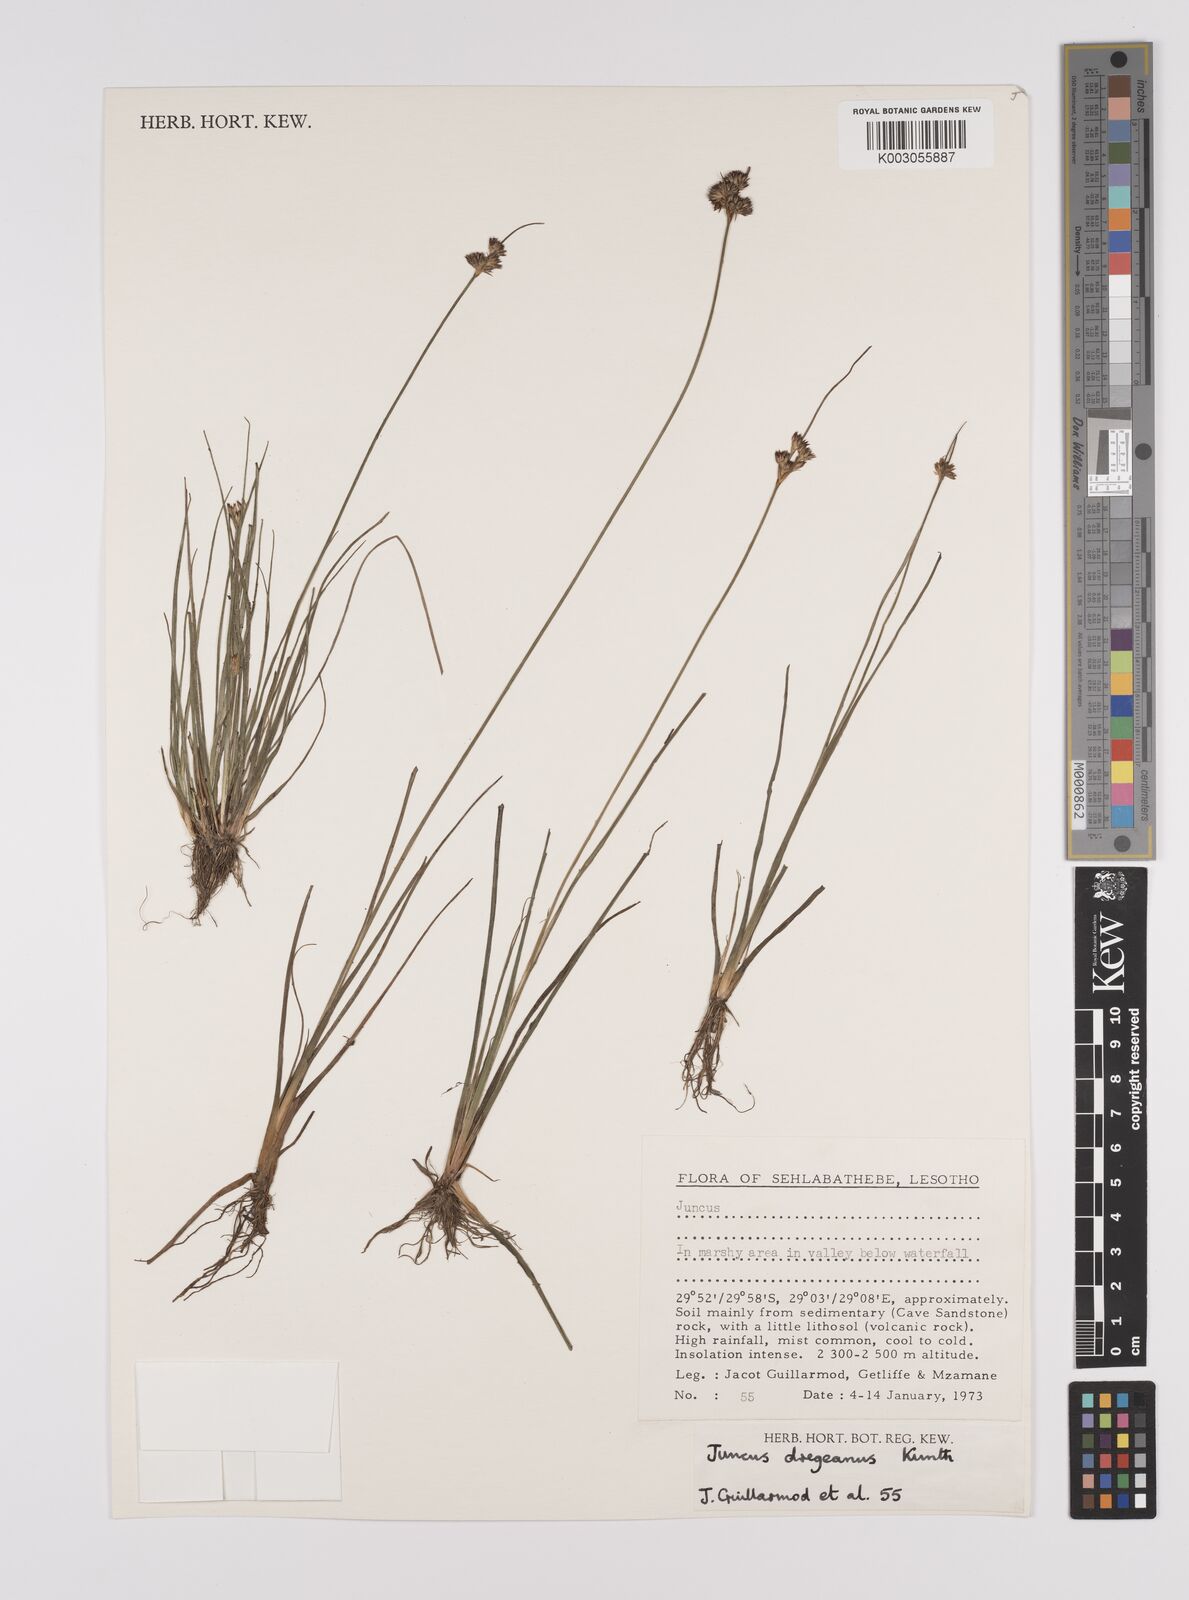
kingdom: Plantae
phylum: Tracheophyta
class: Liliopsida
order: Poales
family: Juncaceae
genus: Juncus
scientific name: Juncus dregeanus
